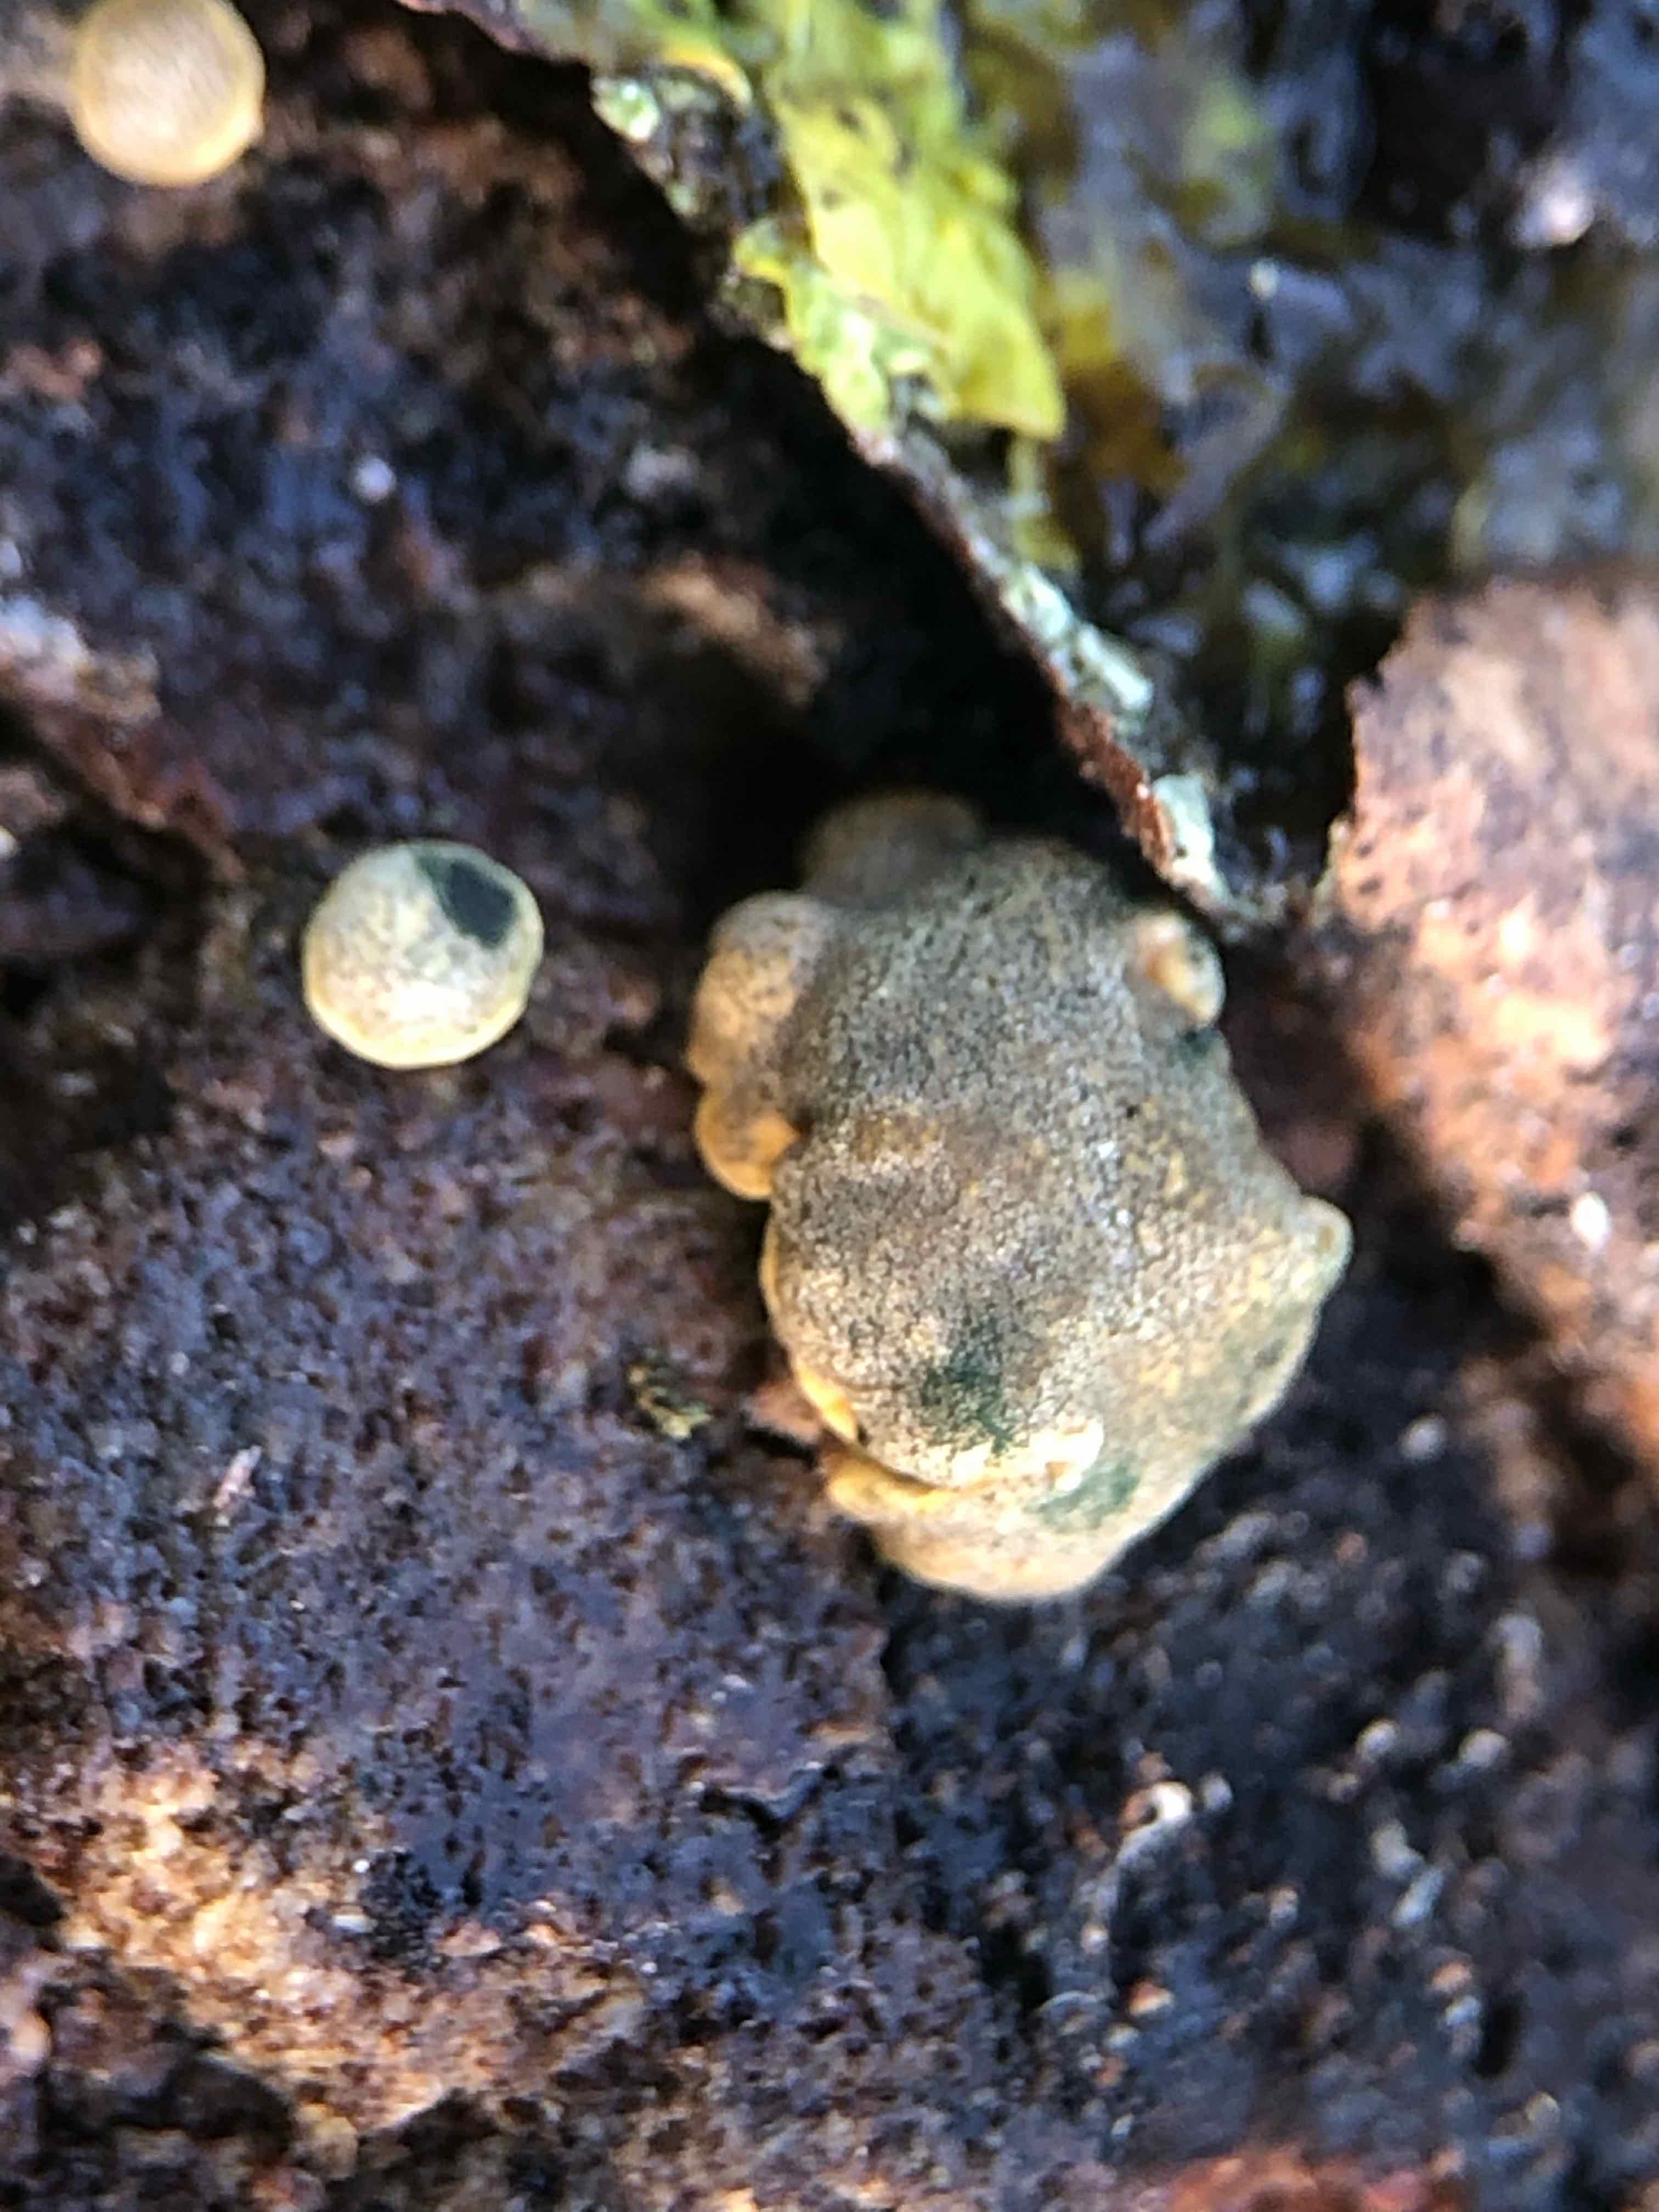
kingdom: Fungi
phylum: Ascomycota
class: Sordariomycetes
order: Hypocreales
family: Hypocreaceae
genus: Trichoderma
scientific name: Trichoderma aureoviride
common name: æggegul kødkerne
